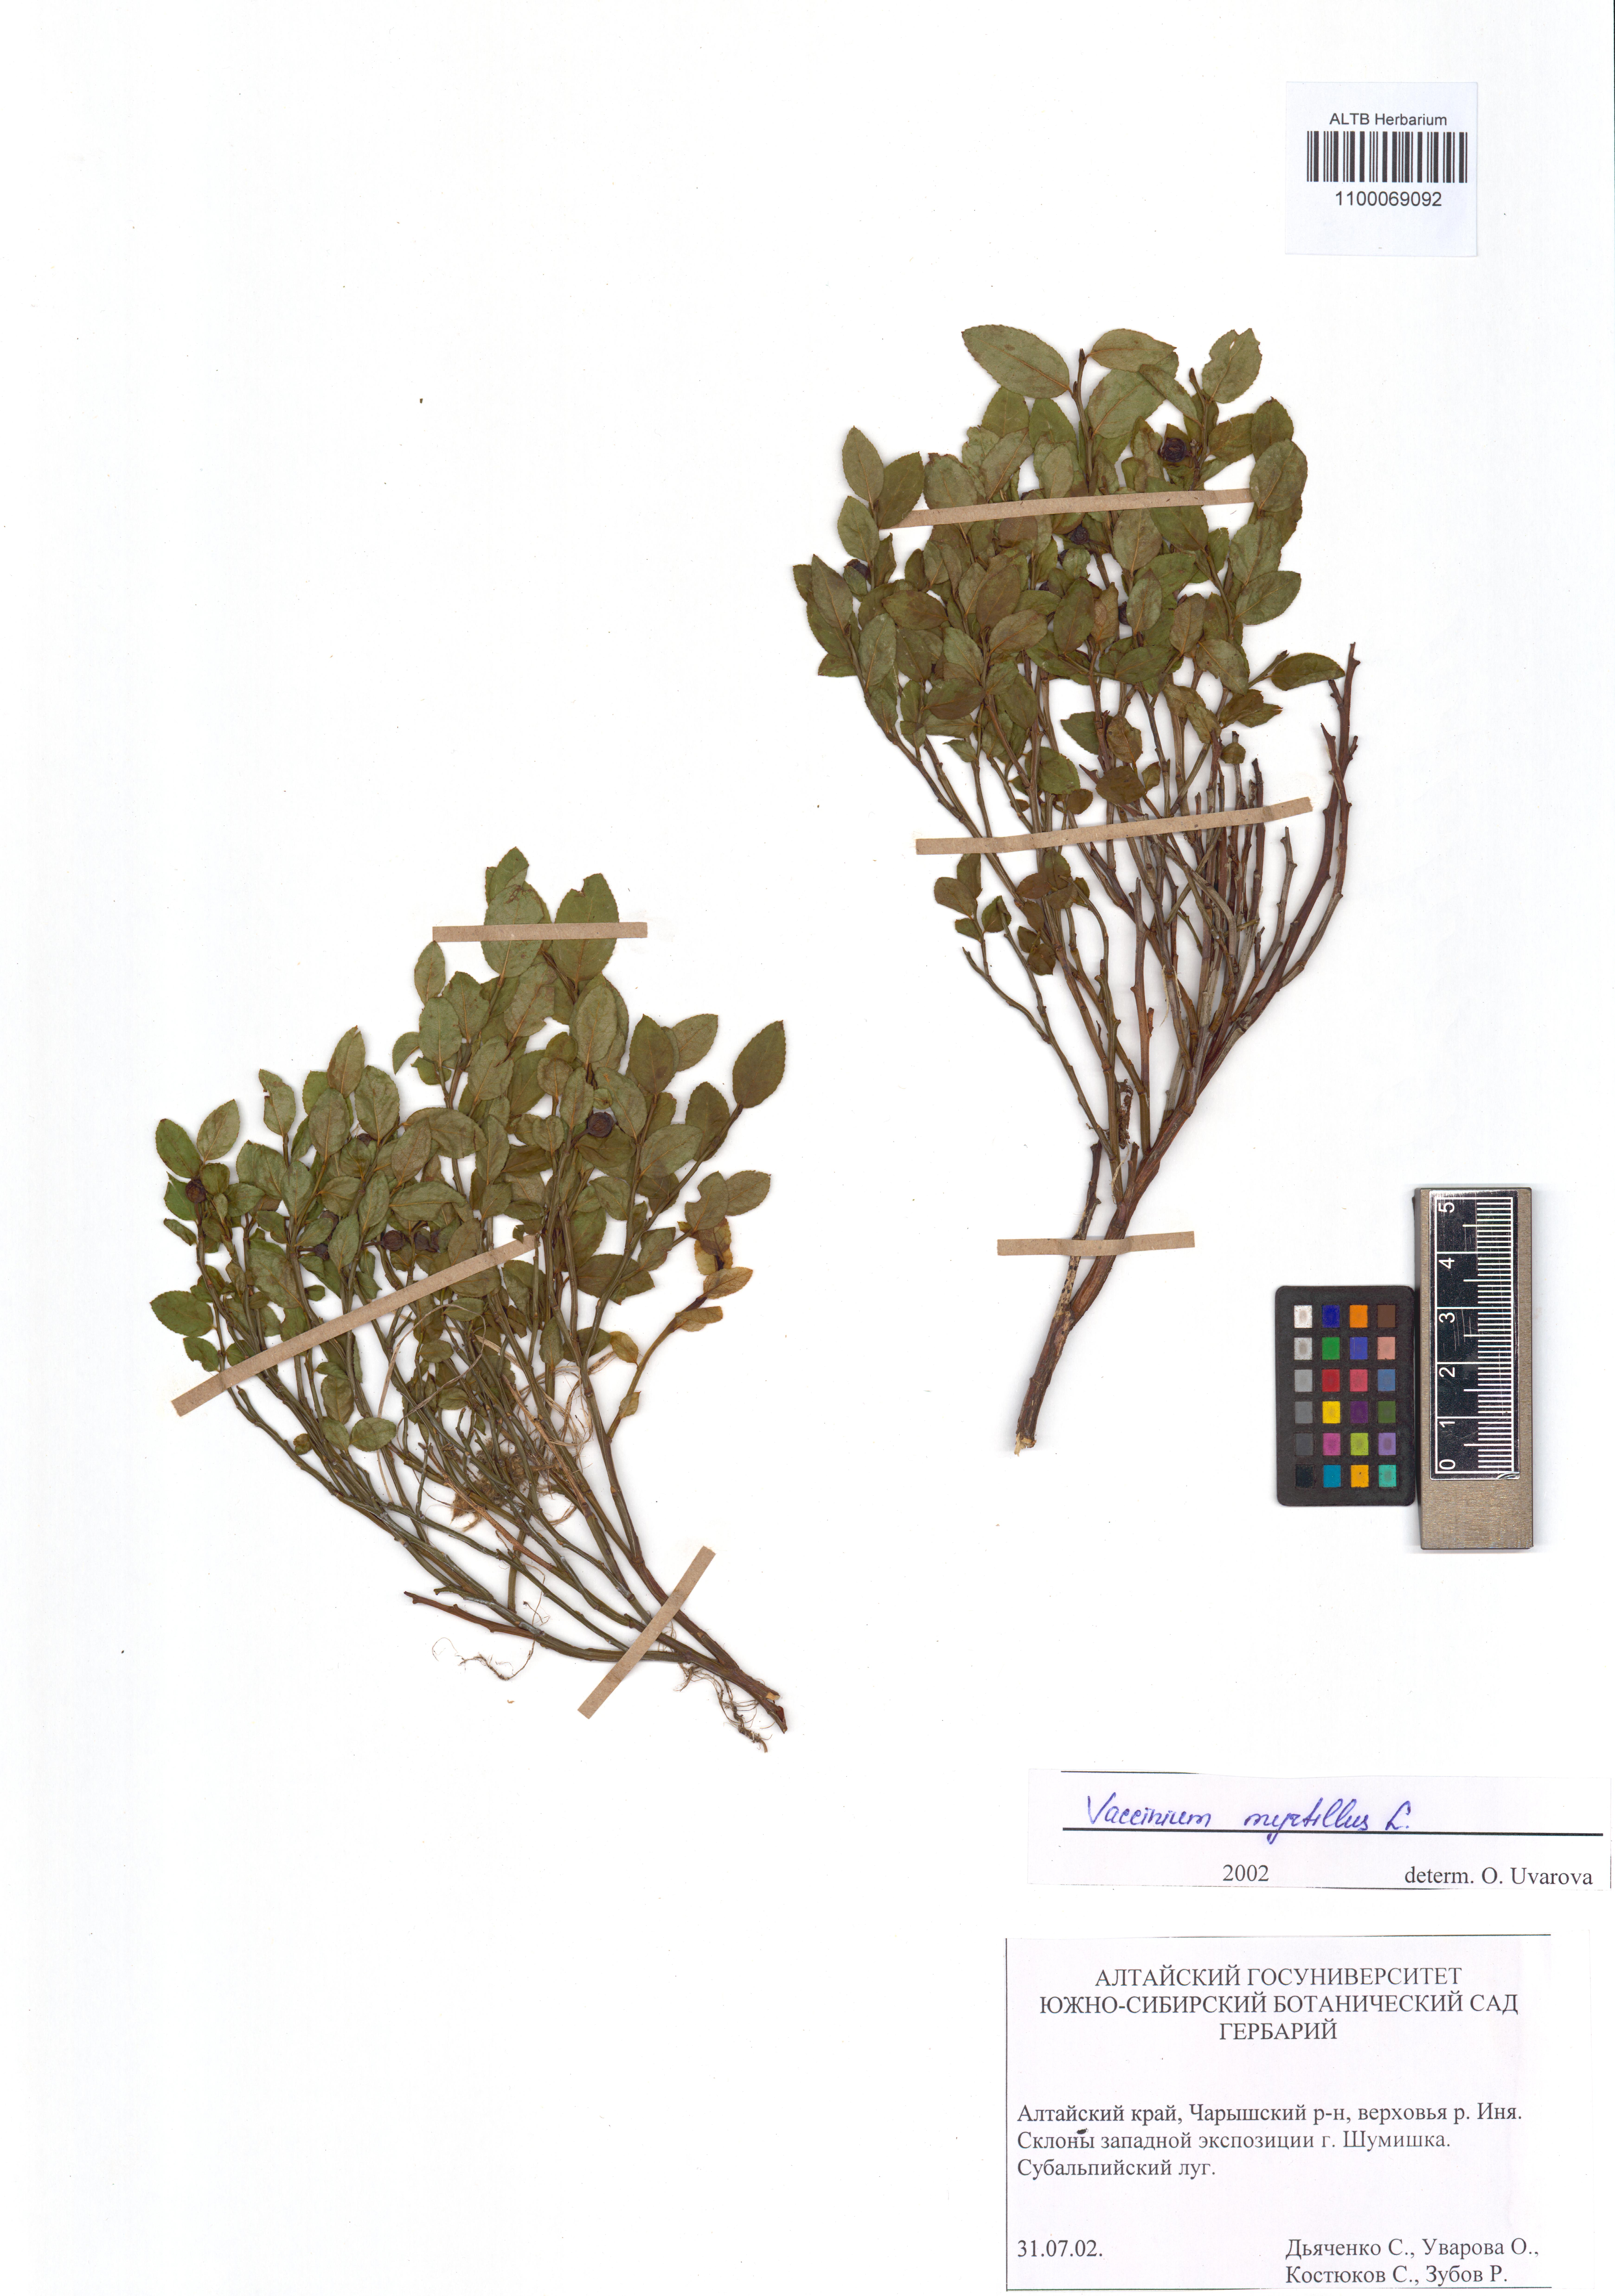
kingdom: Plantae
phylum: Tracheophyta
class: Magnoliopsida
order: Ericales
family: Ericaceae
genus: Vaccinium
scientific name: Vaccinium myrtillus
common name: Bilberry
